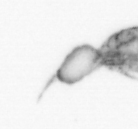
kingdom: Animalia
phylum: Arthropoda
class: Copepoda
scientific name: Copepoda
